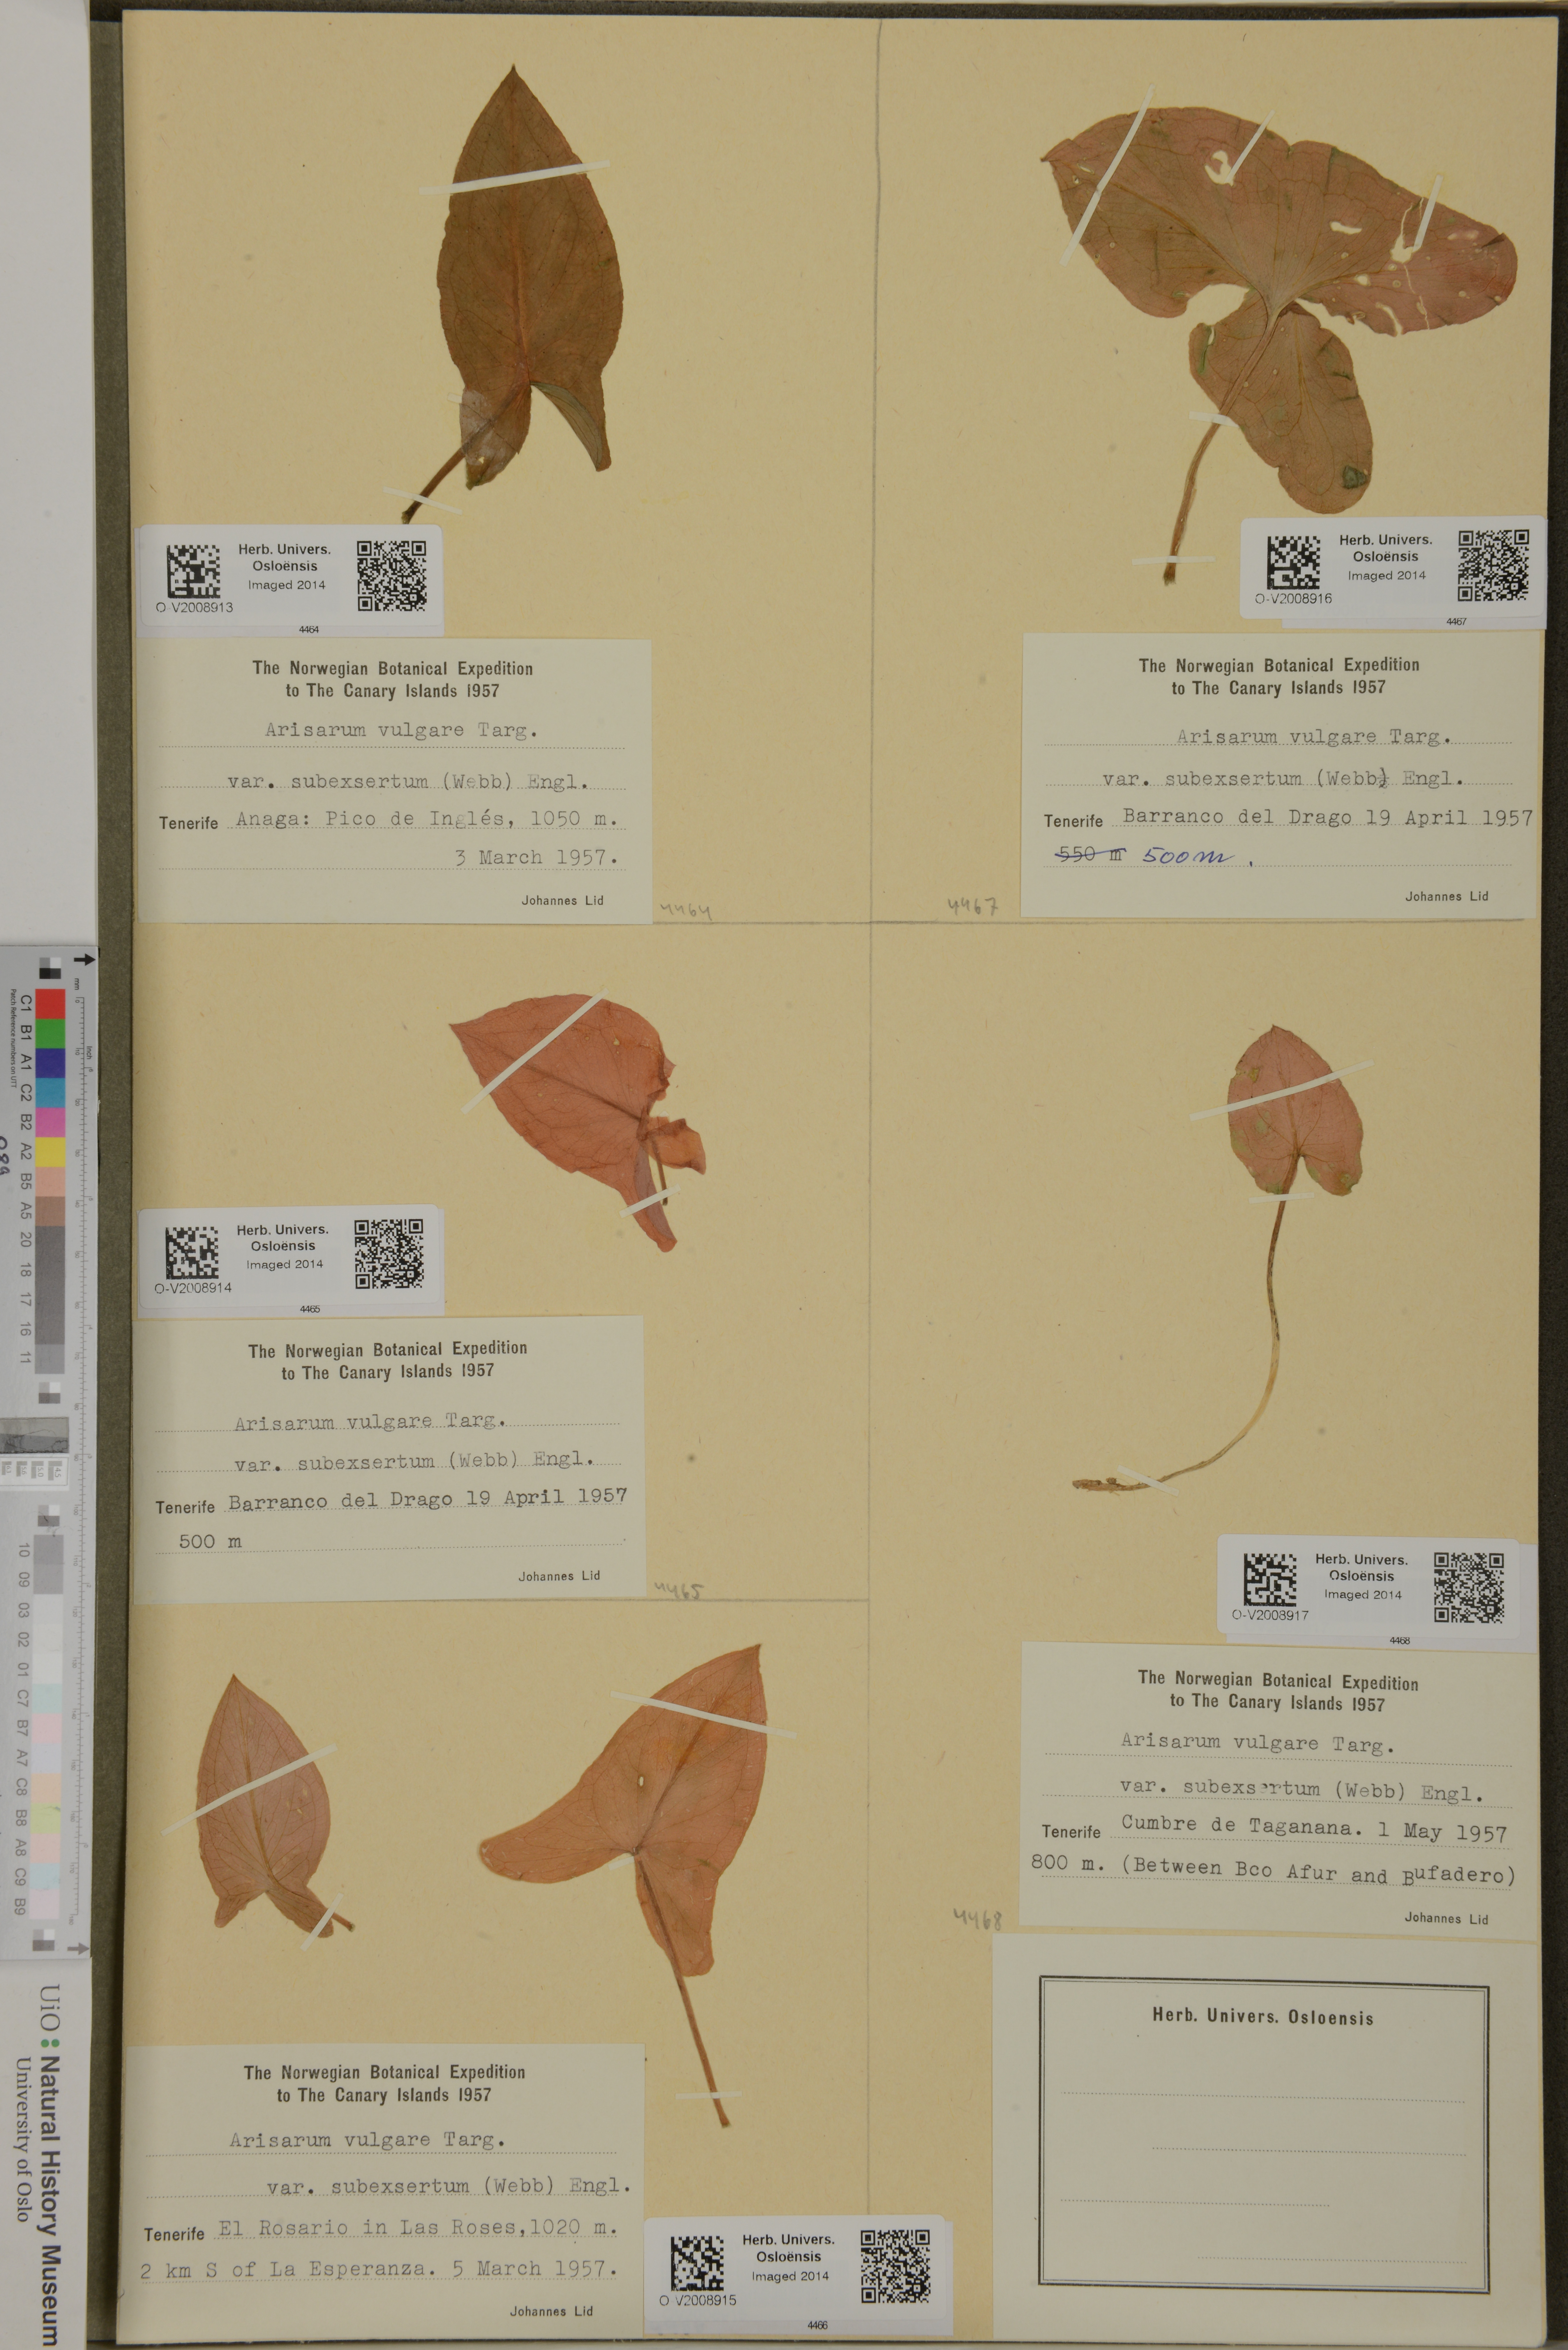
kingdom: Plantae
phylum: Tracheophyta
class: Liliopsida
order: Alismatales
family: Araceae
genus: Arisarum
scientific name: Arisarum simorrhinum
